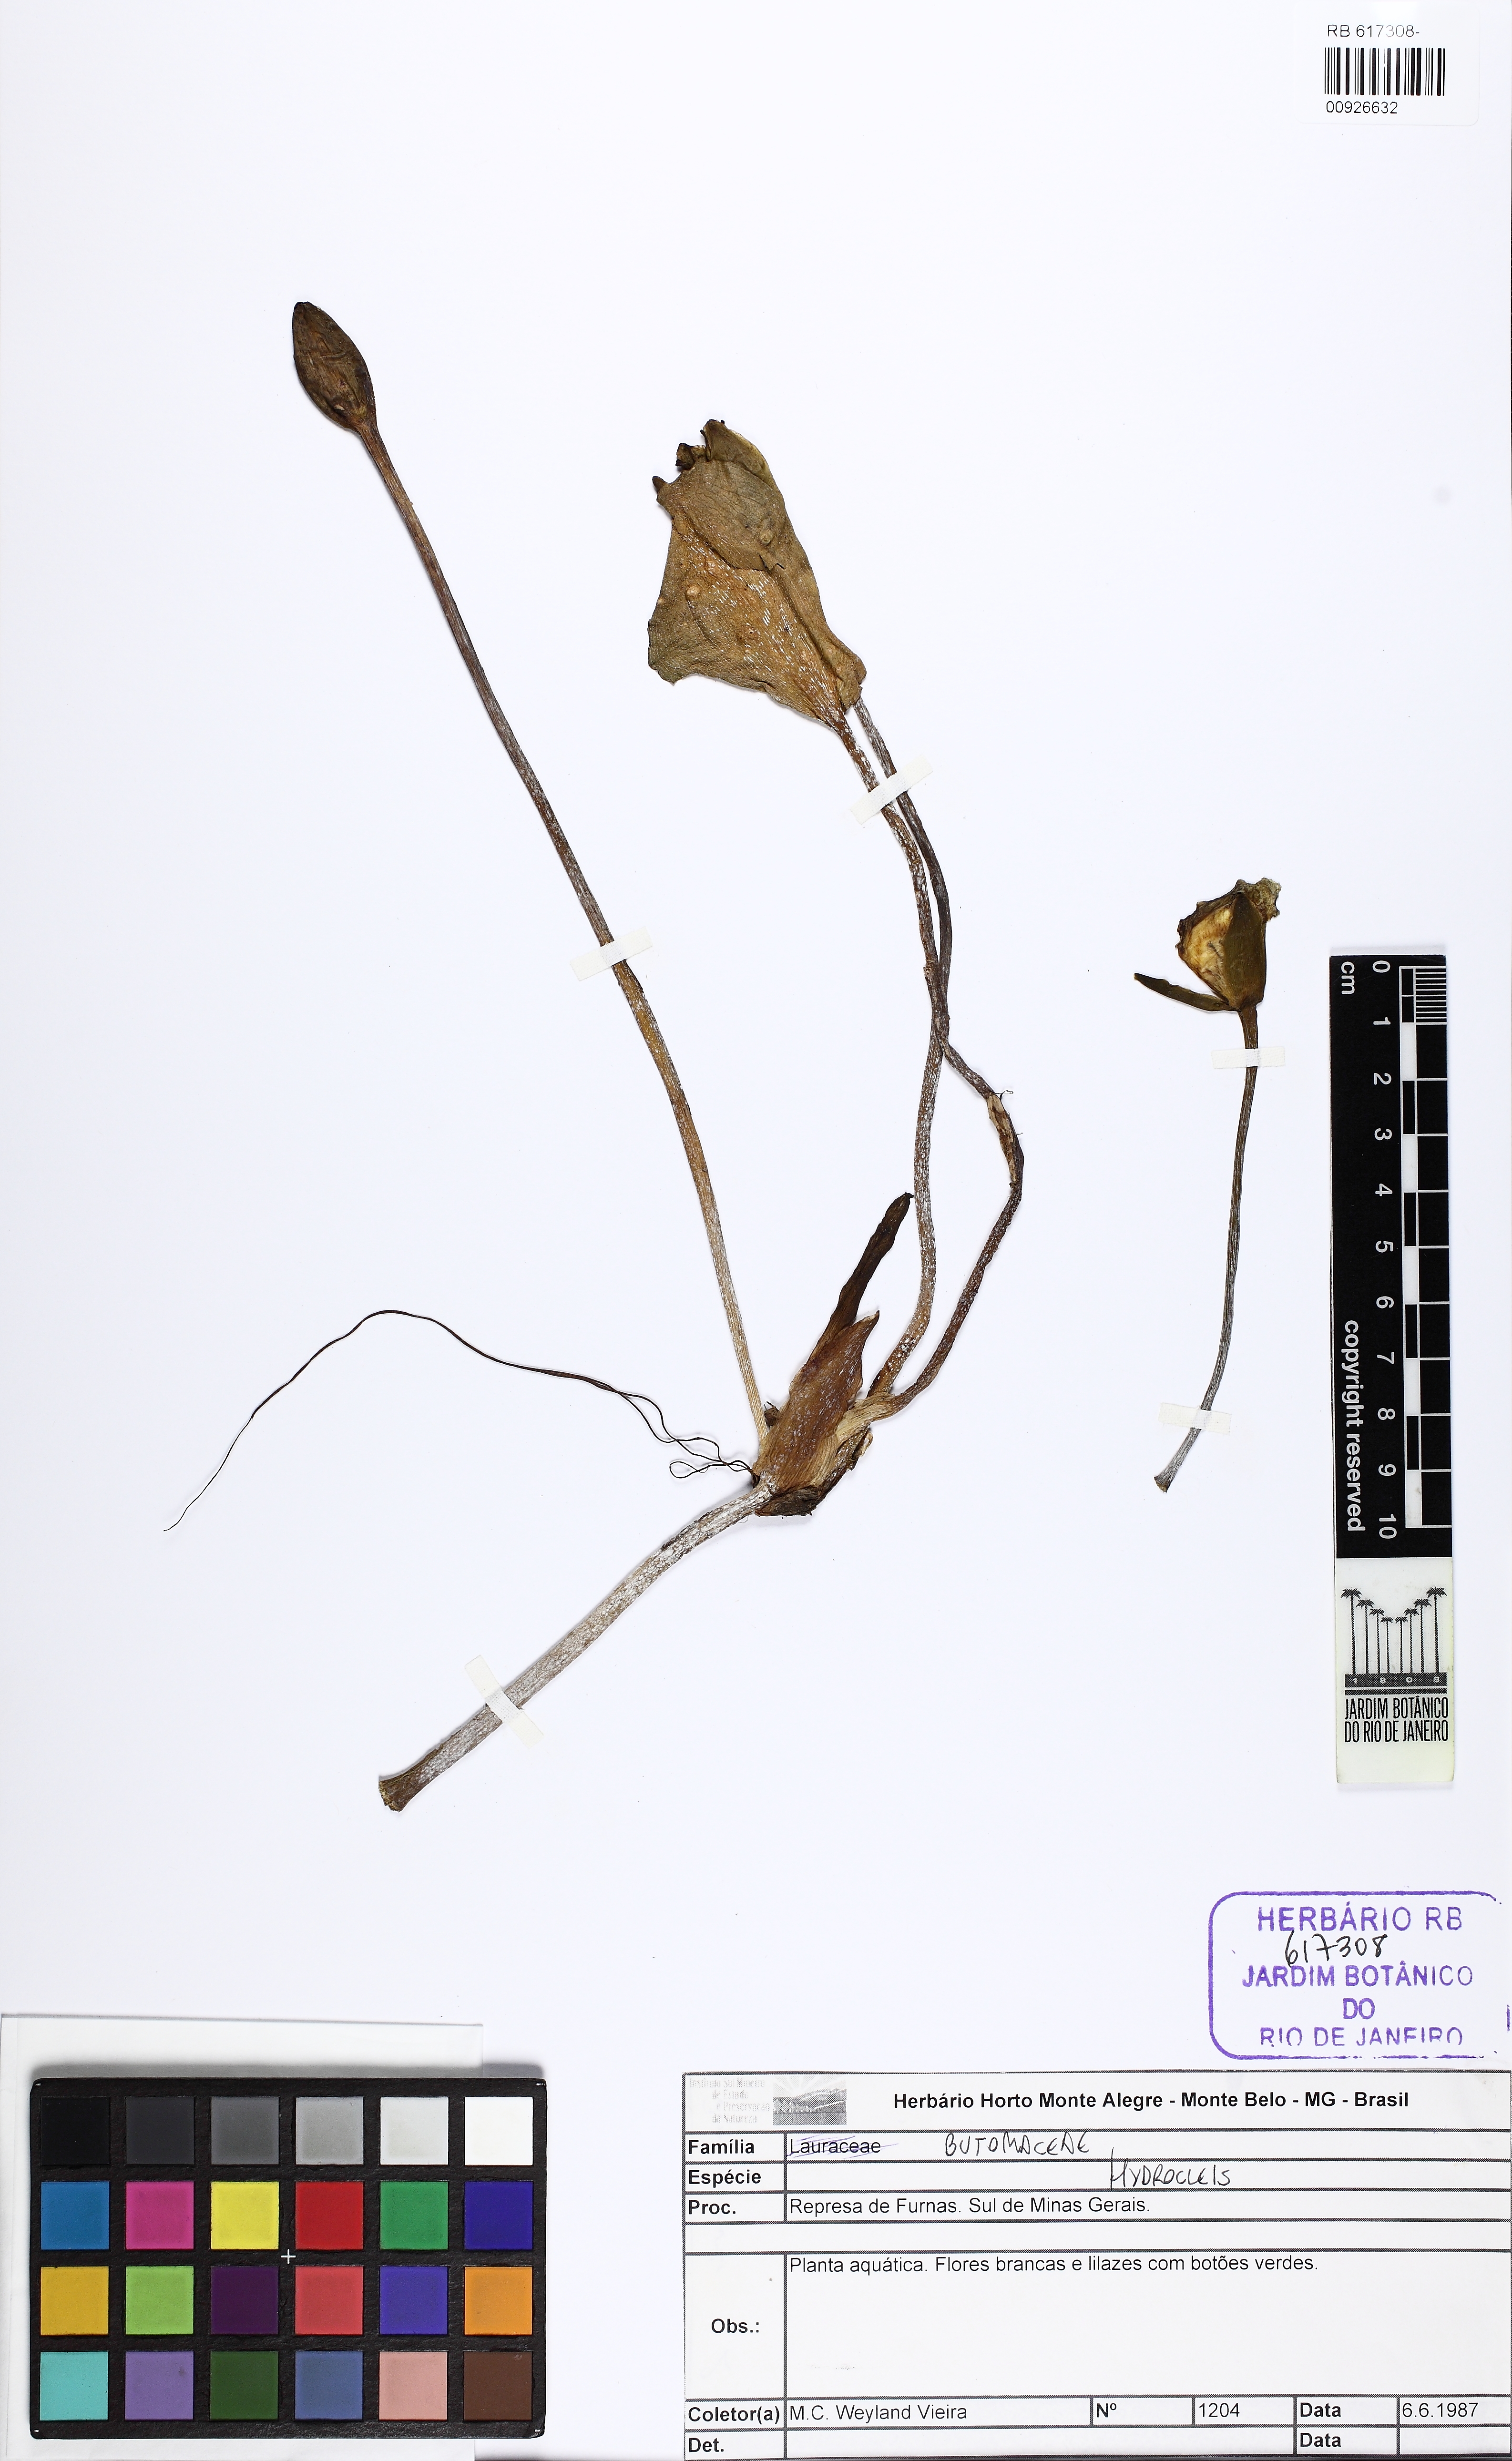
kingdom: Plantae
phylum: Tracheophyta
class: Liliopsida
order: Alismatales
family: Alismataceae
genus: Hydrocleys
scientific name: Hydrocleys
